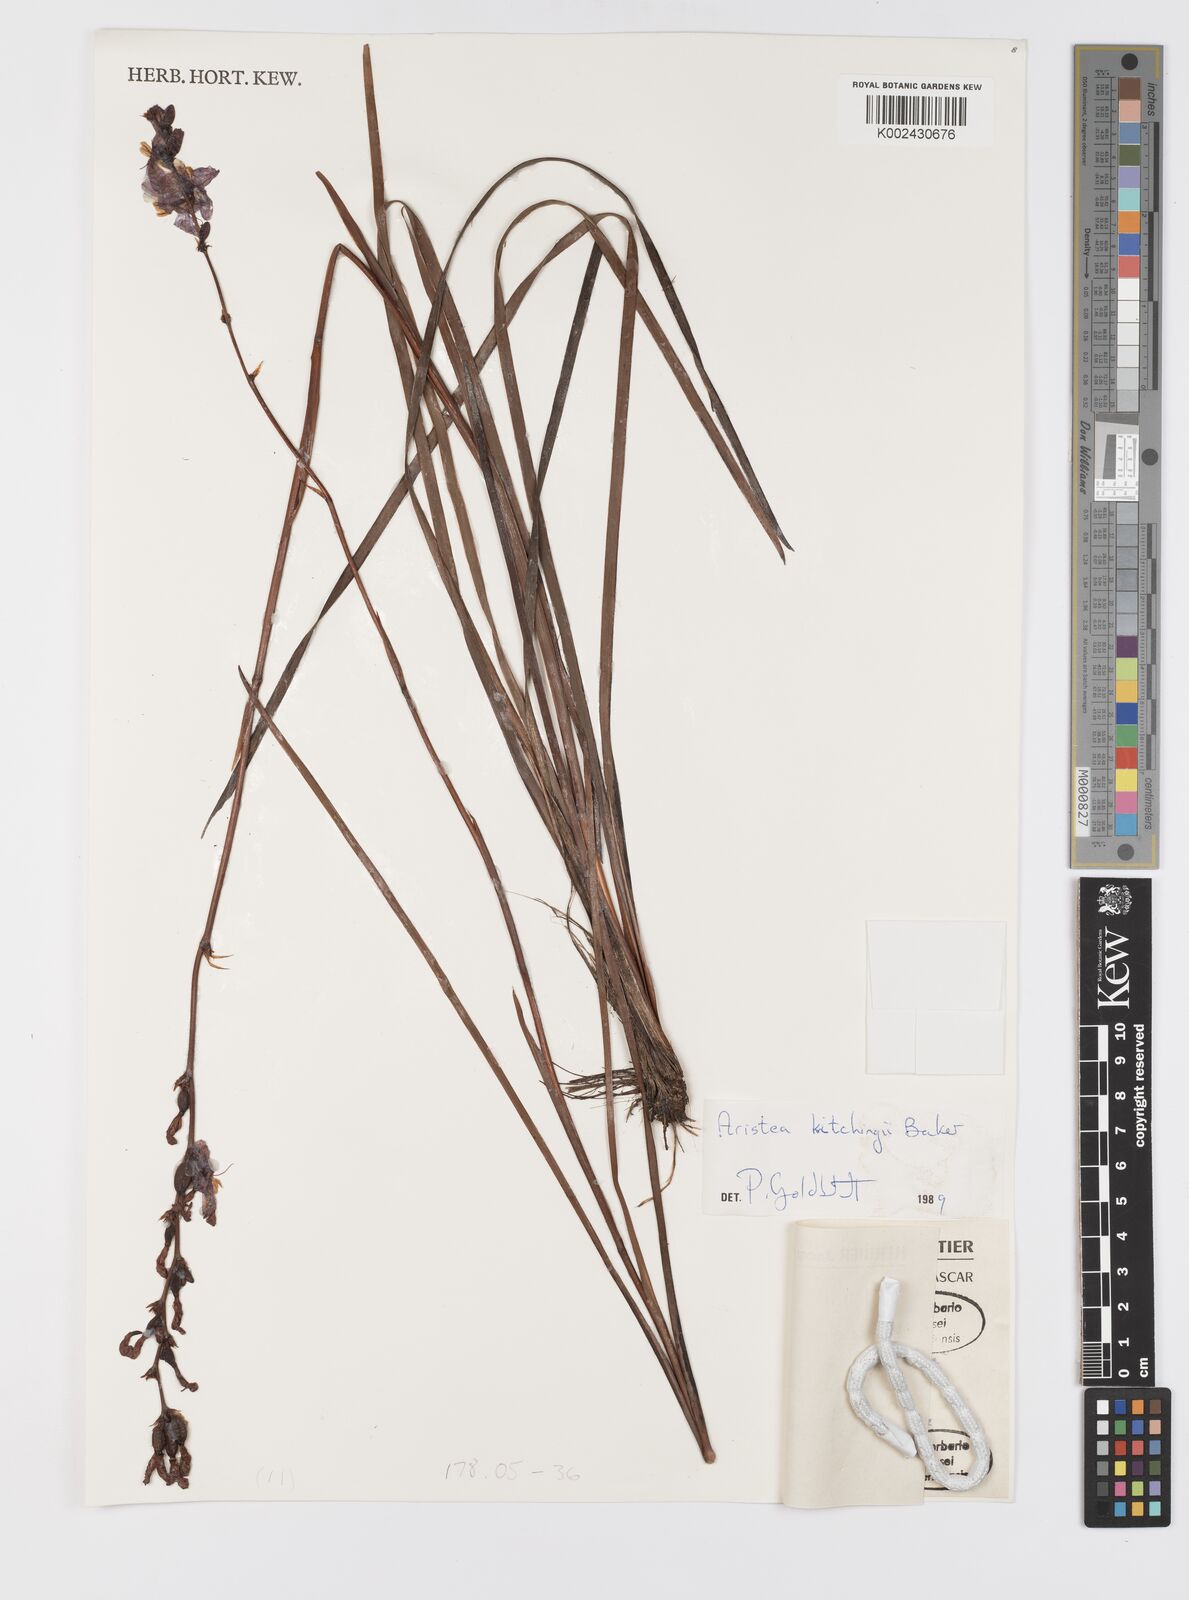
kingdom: Plantae
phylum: Tracheophyta
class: Liliopsida
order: Asparagales
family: Iridaceae
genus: Aristea
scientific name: Aristea kitchingii
